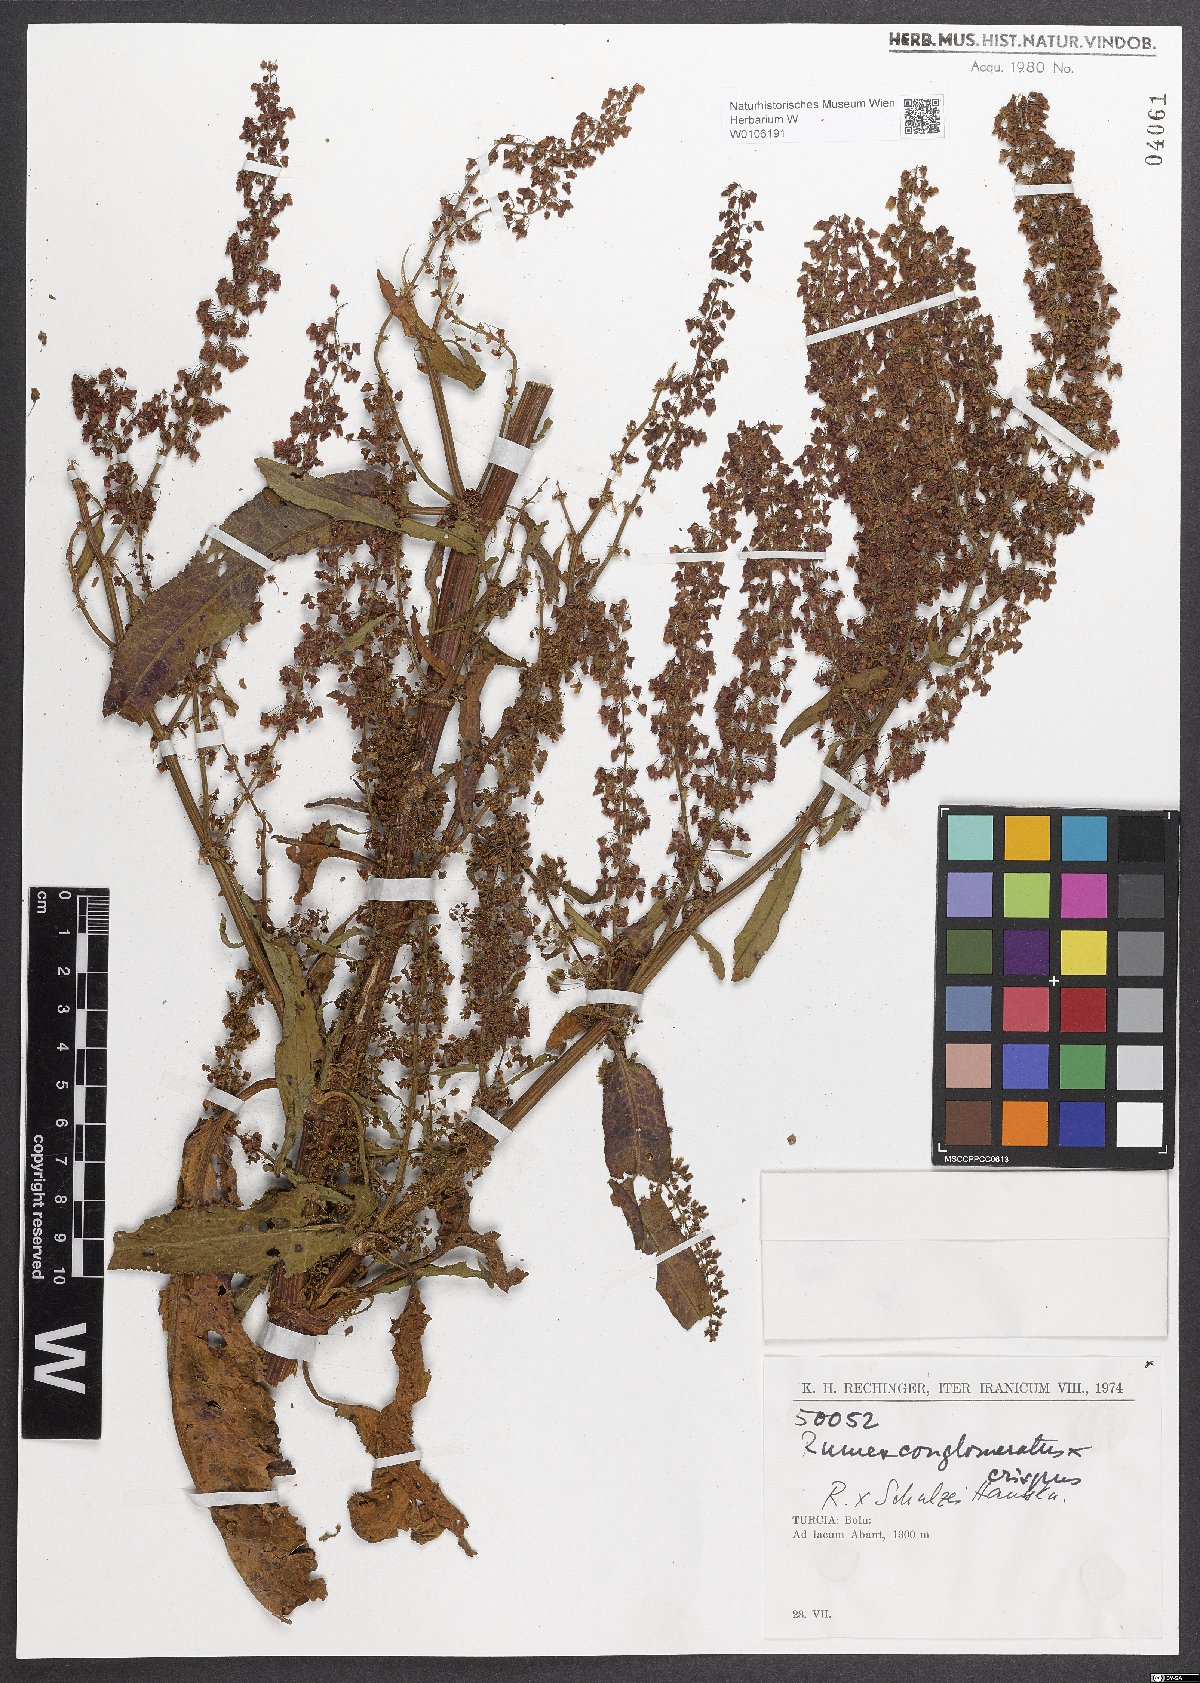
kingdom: Plantae
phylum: Tracheophyta
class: Magnoliopsida
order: Caryophyllales
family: Polygonaceae
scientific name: Polygonaceae
